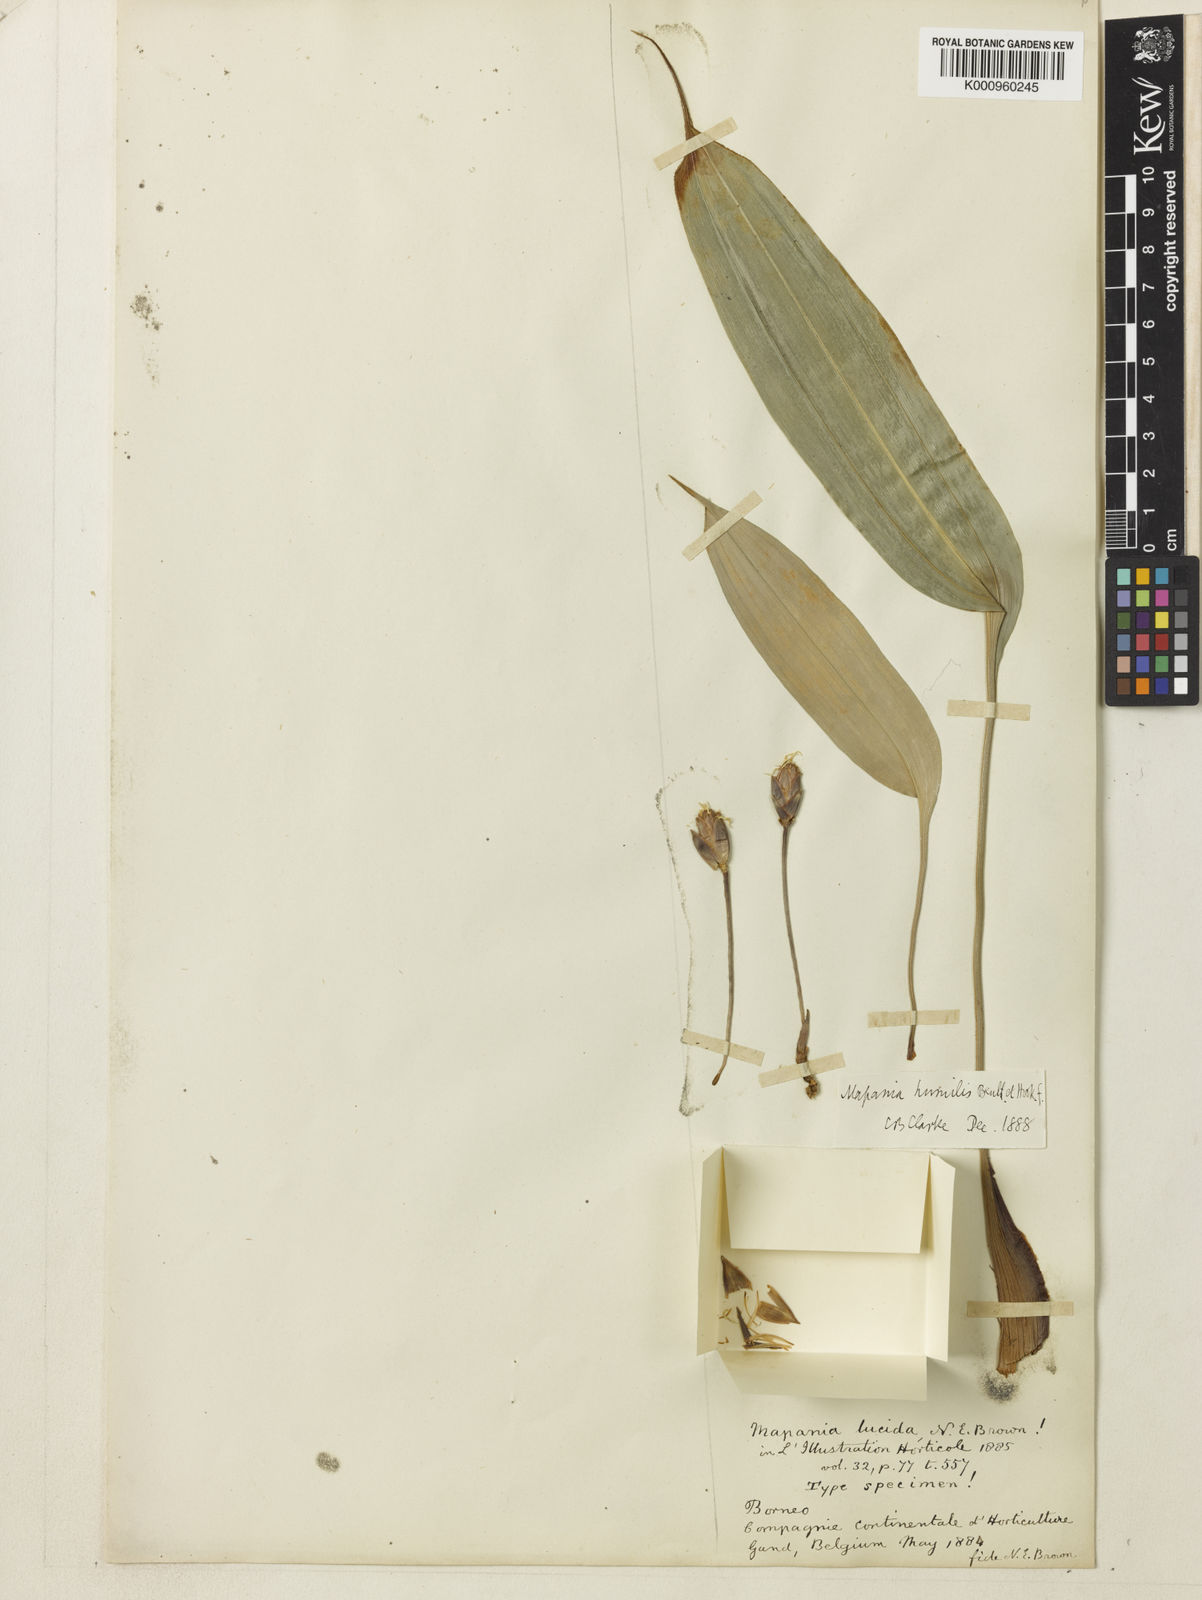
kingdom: Plantae
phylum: Tracheophyta
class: Liliopsida
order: Poales
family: Cyperaceae
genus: Mapania
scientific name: Mapania cuspidata
